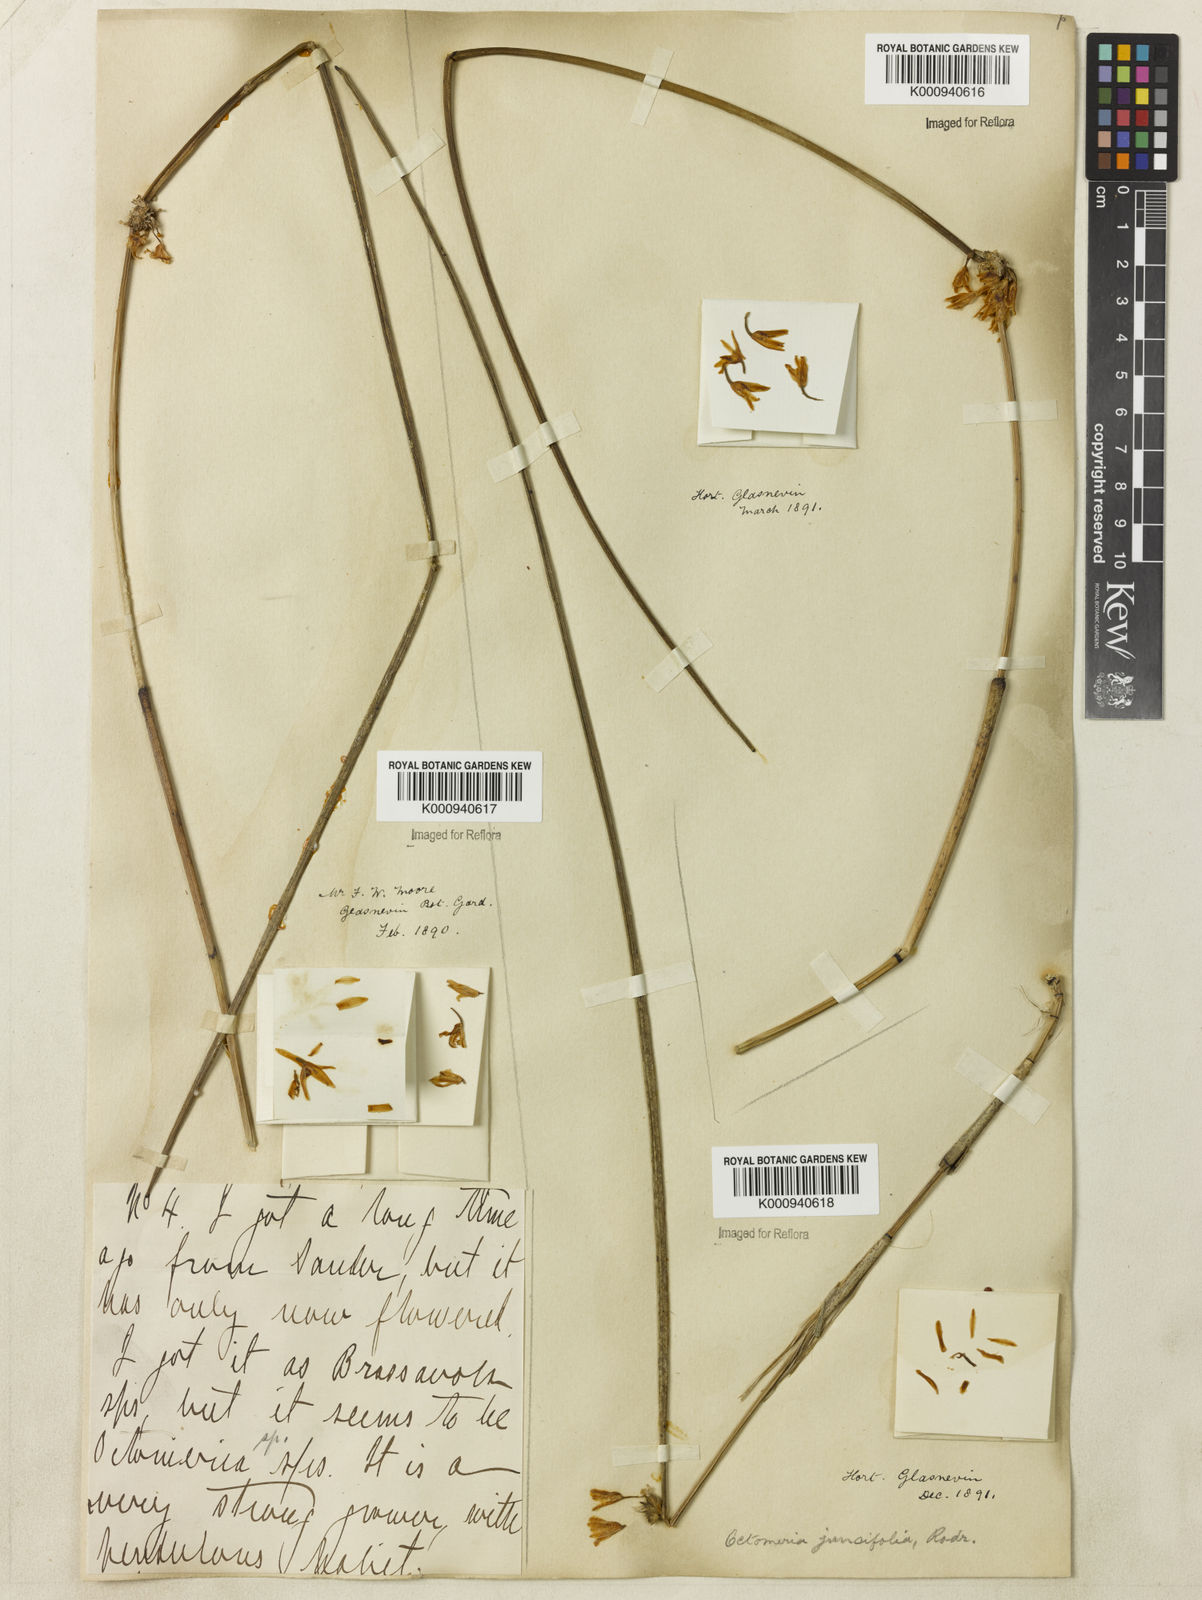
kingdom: Plantae
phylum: Tracheophyta
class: Liliopsida
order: Asparagales
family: Orchidaceae
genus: Octomeria
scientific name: Octomeria juncifolia
